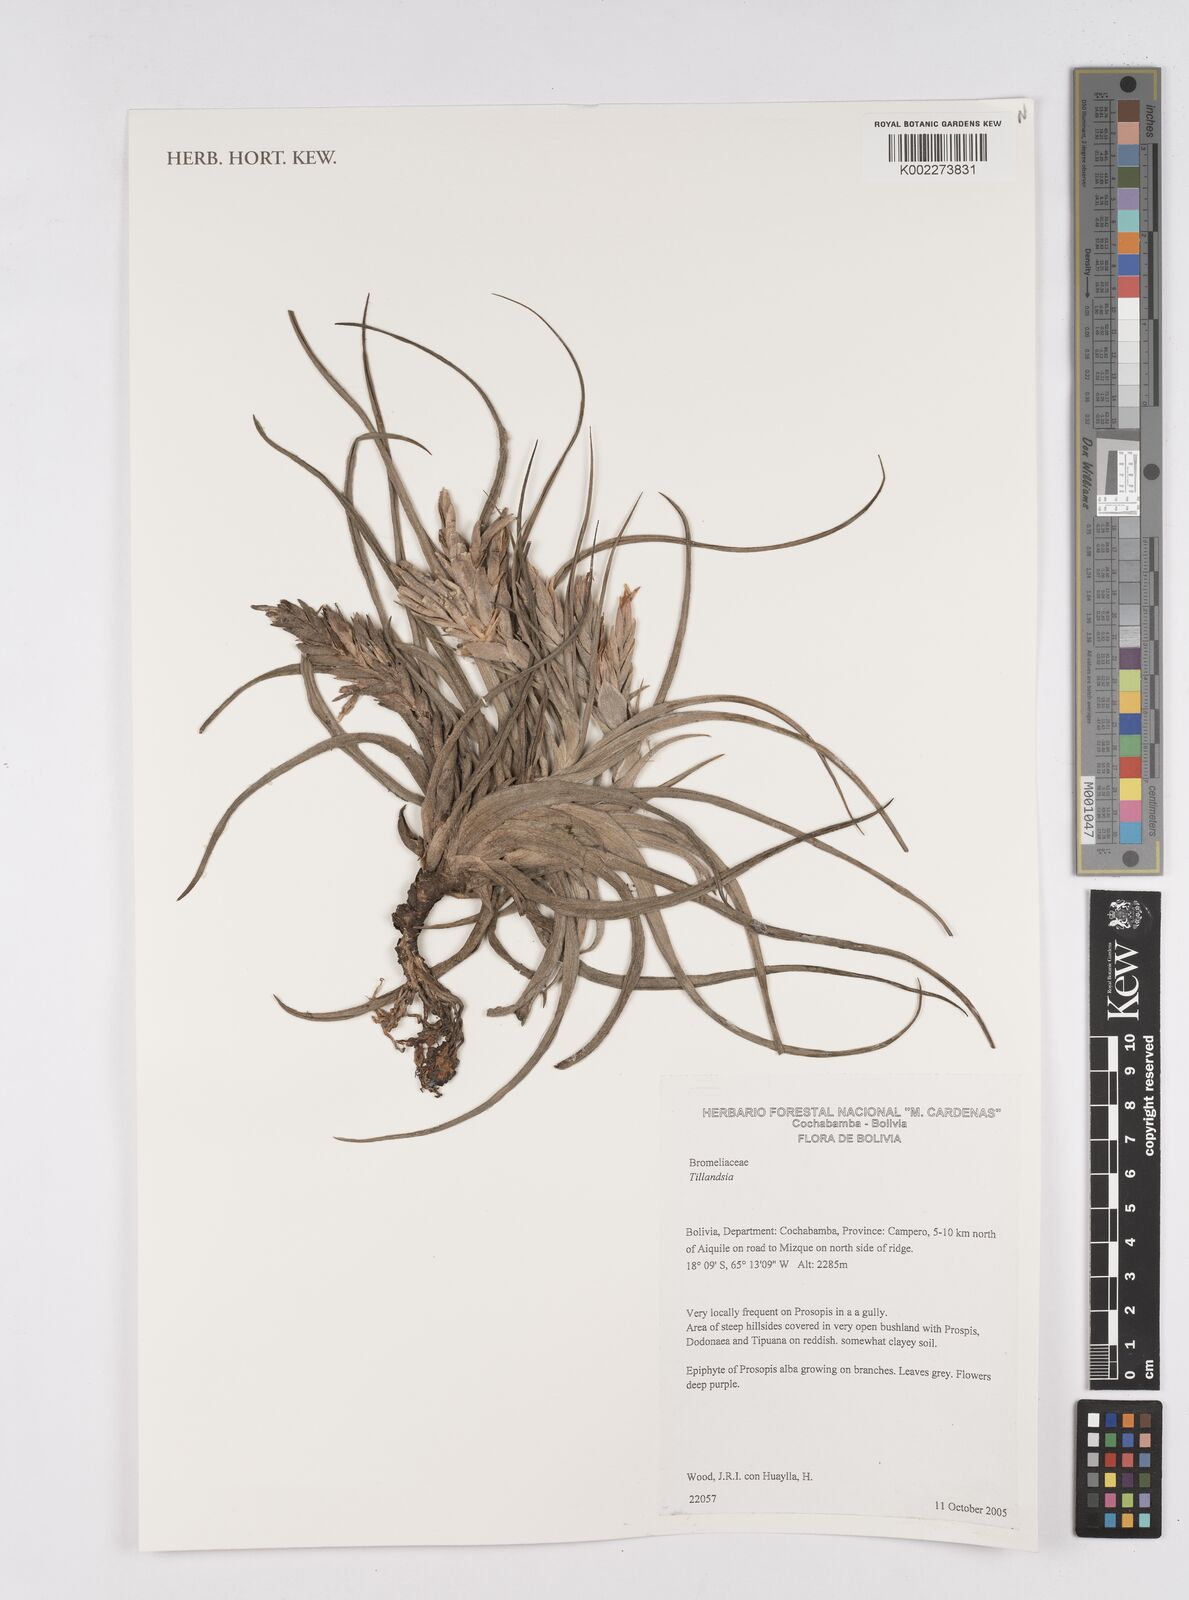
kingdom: Plantae
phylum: Tracheophyta
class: Liliopsida
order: Poales
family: Bromeliaceae
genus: Tillandsia
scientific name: Tillandsia
